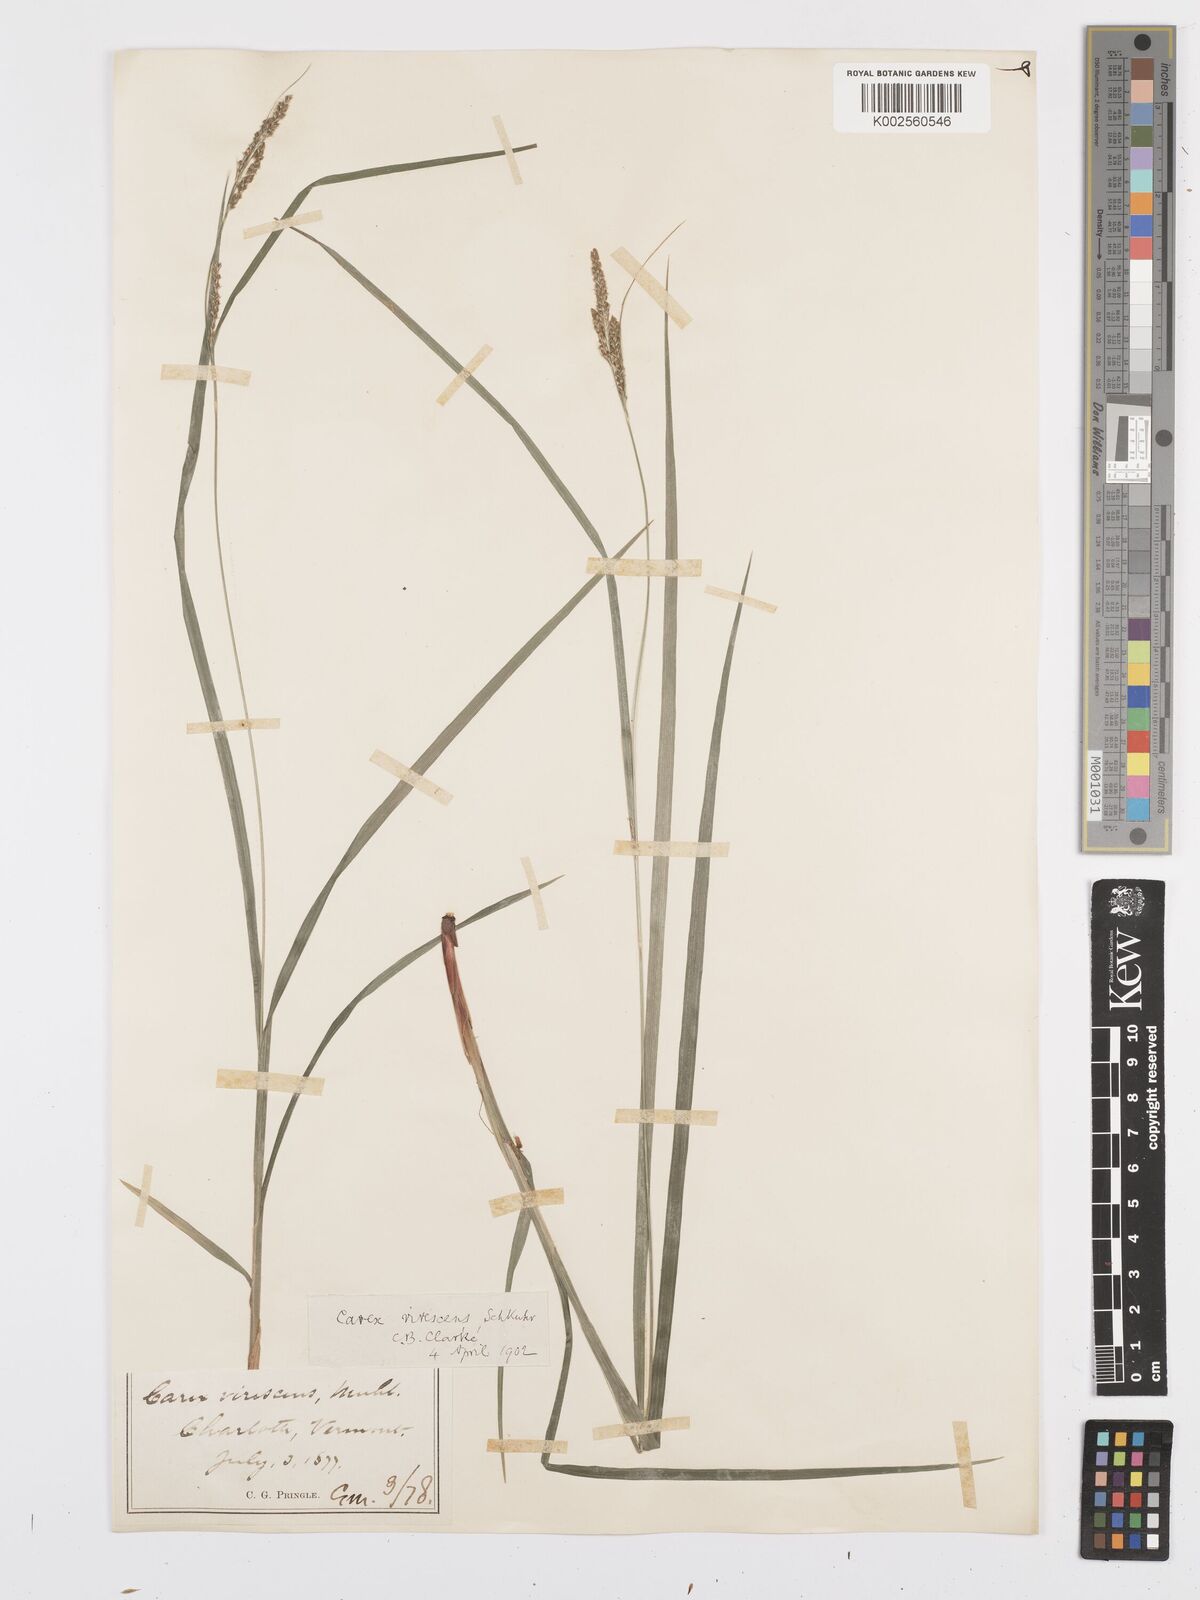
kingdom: Plantae
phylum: Tracheophyta
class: Liliopsida
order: Poales
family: Cyperaceae
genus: Carex
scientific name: Carex virescens
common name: Ribbed sedge
